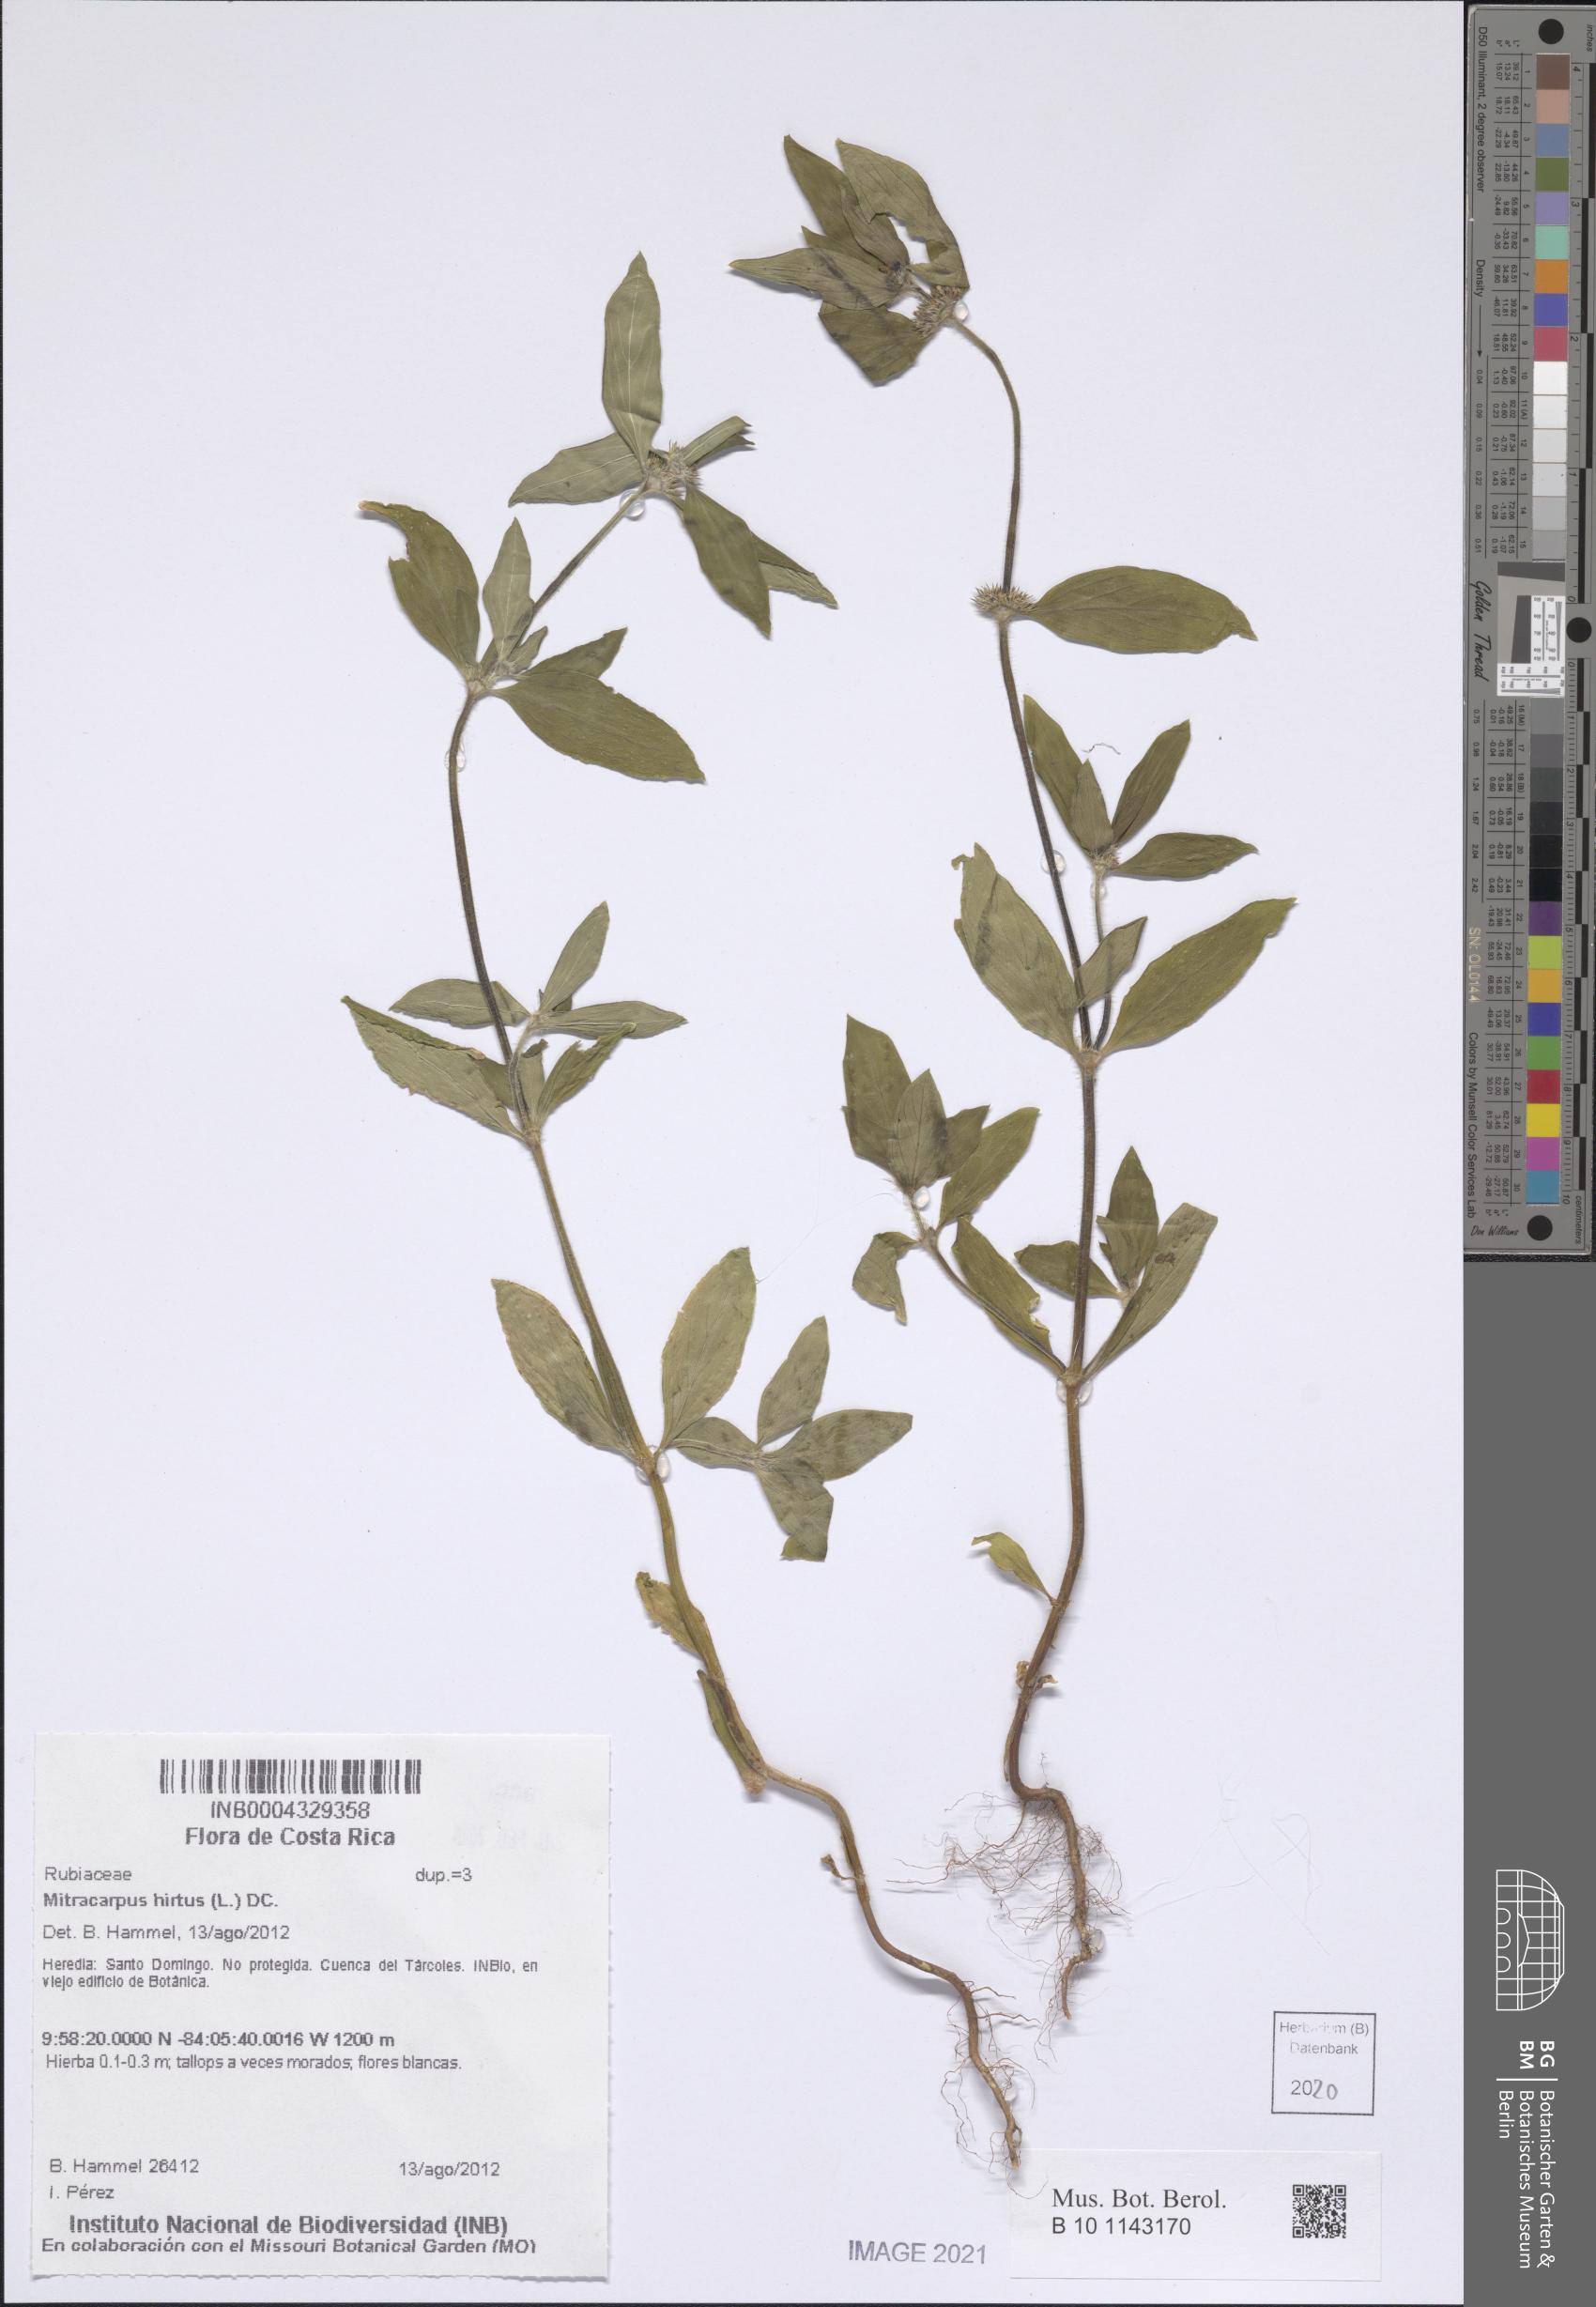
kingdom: Plantae
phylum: Tracheophyta
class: Magnoliopsida
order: Gentianales
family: Rubiaceae
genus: Mitracarpus
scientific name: Mitracarpus hirtus
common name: Tropical girdlepod
